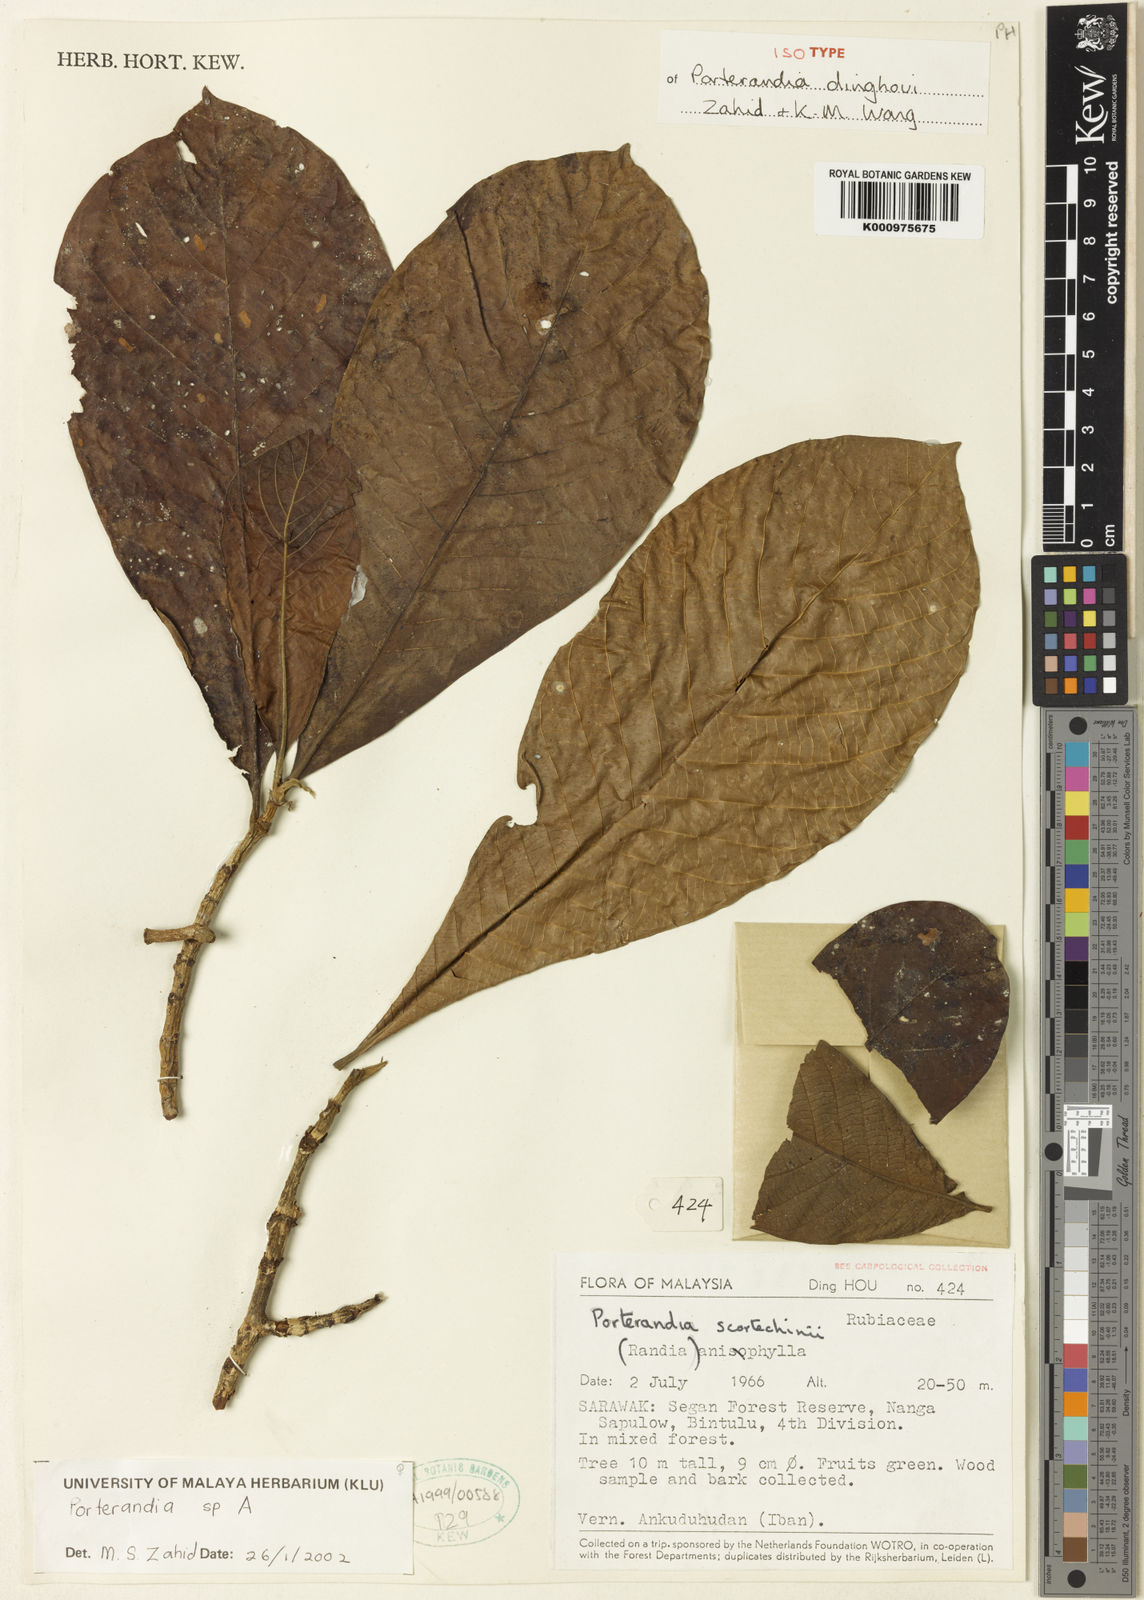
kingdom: Plantae
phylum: Tracheophyta
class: Magnoliopsida
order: Gentianales
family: Rubiaceae
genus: Porterandia
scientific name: Porterandia dinghoui
